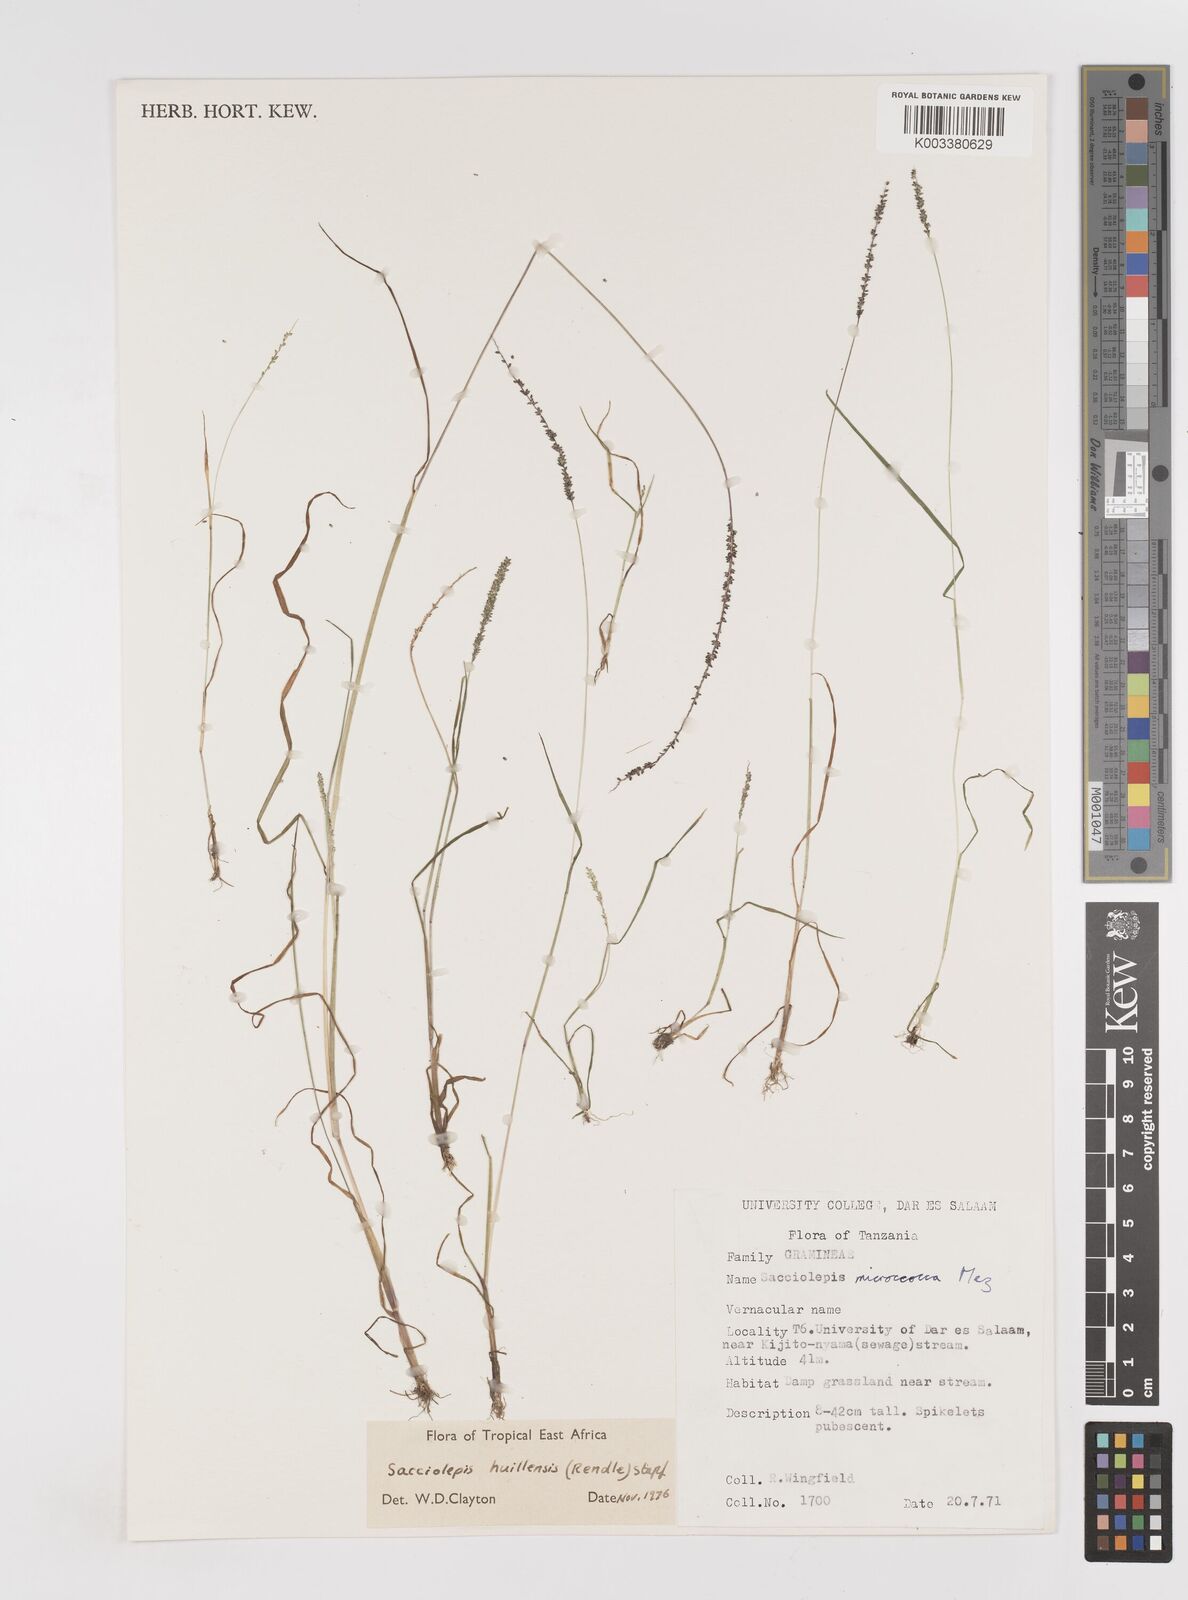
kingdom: Plantae
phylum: Tracheophyta
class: Liliopsida
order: Poales
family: Poaceae
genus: Sacciolepis
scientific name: Sacciolepis myosuroides
